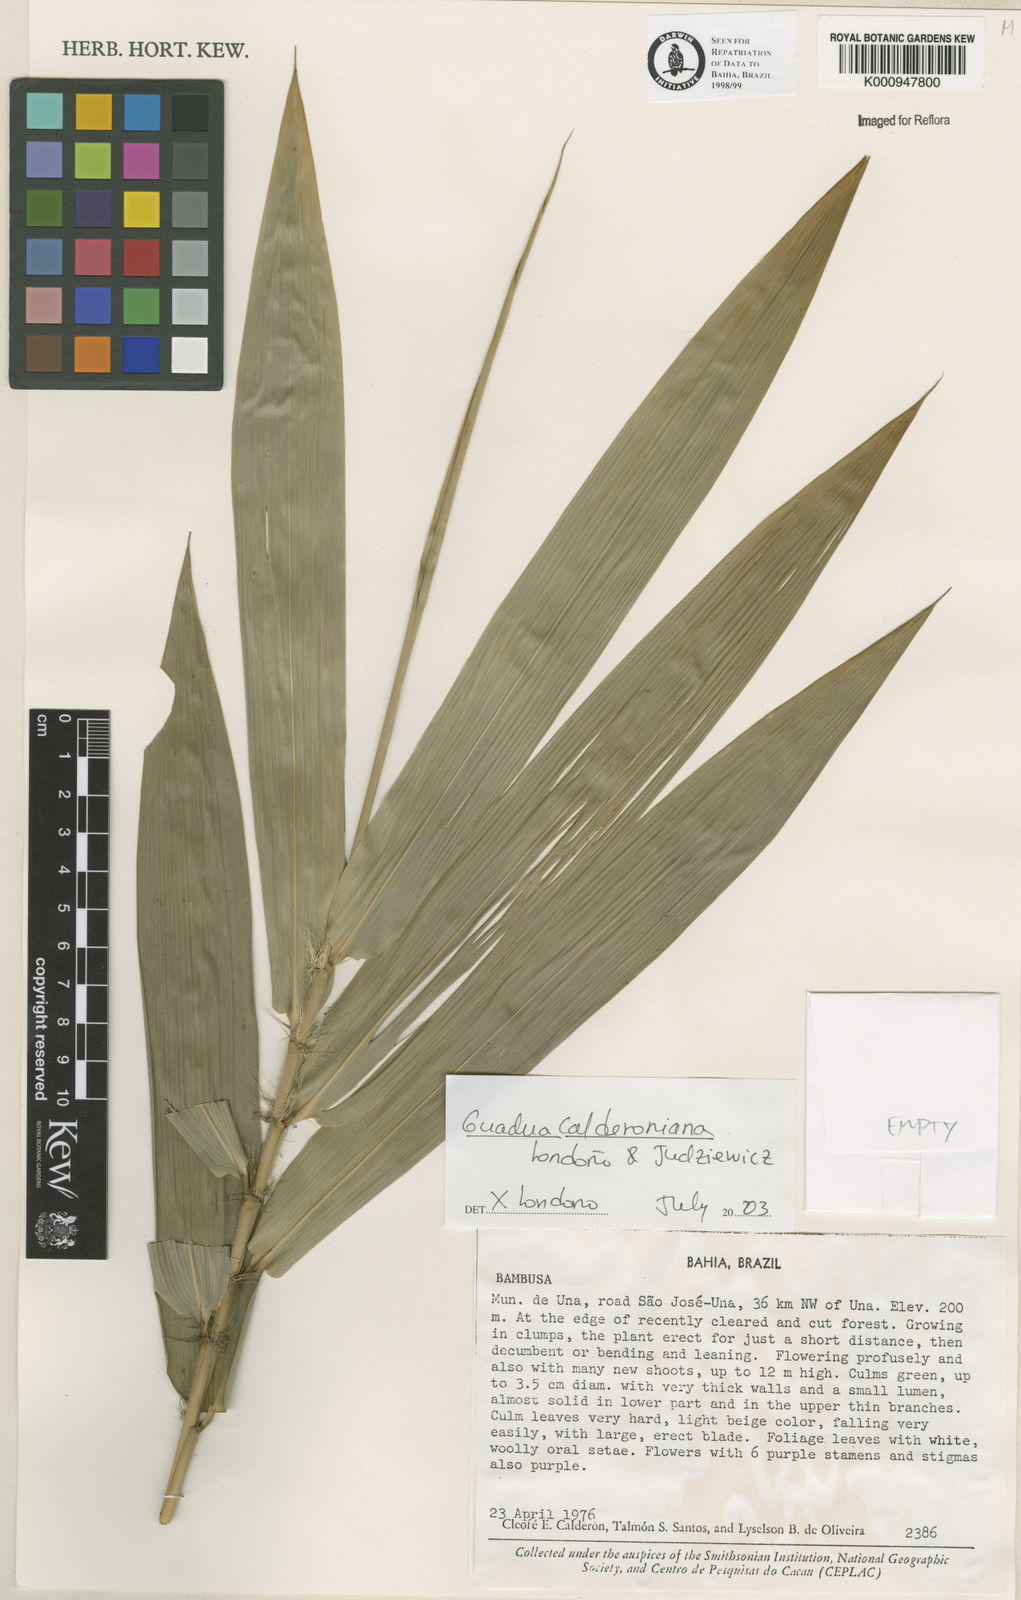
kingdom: Plantae
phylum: Tracheophyta
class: Liliopsida
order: Poales
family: Poaceae
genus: Guadua
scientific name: Guadua
